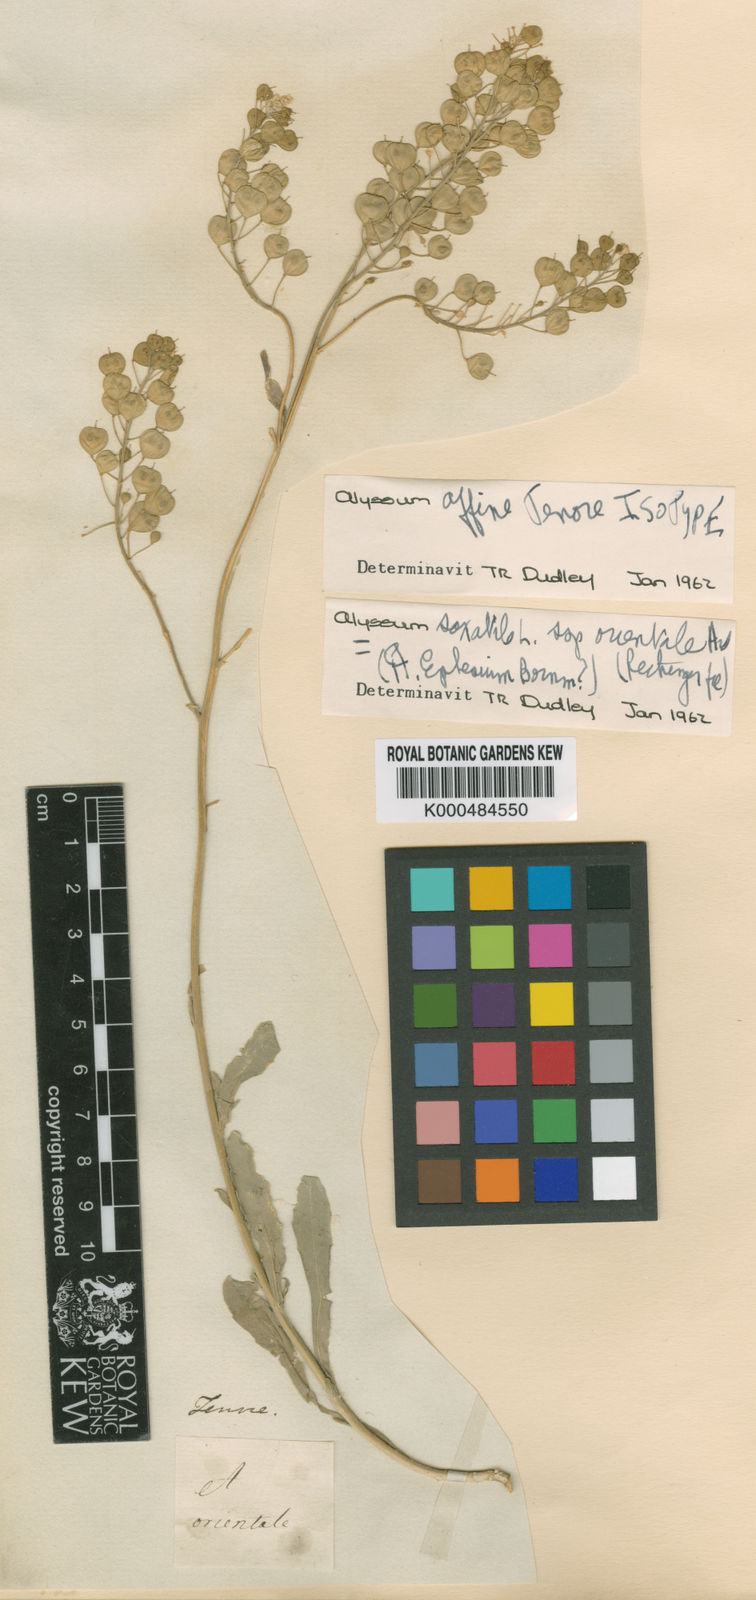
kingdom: Plantae
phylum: Tracheophyta
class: Magnoliopsida
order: Brassicales
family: Brassicaceae
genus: Aurinia
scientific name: Aurinia saxatilis
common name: Golden-tuft alyssum
